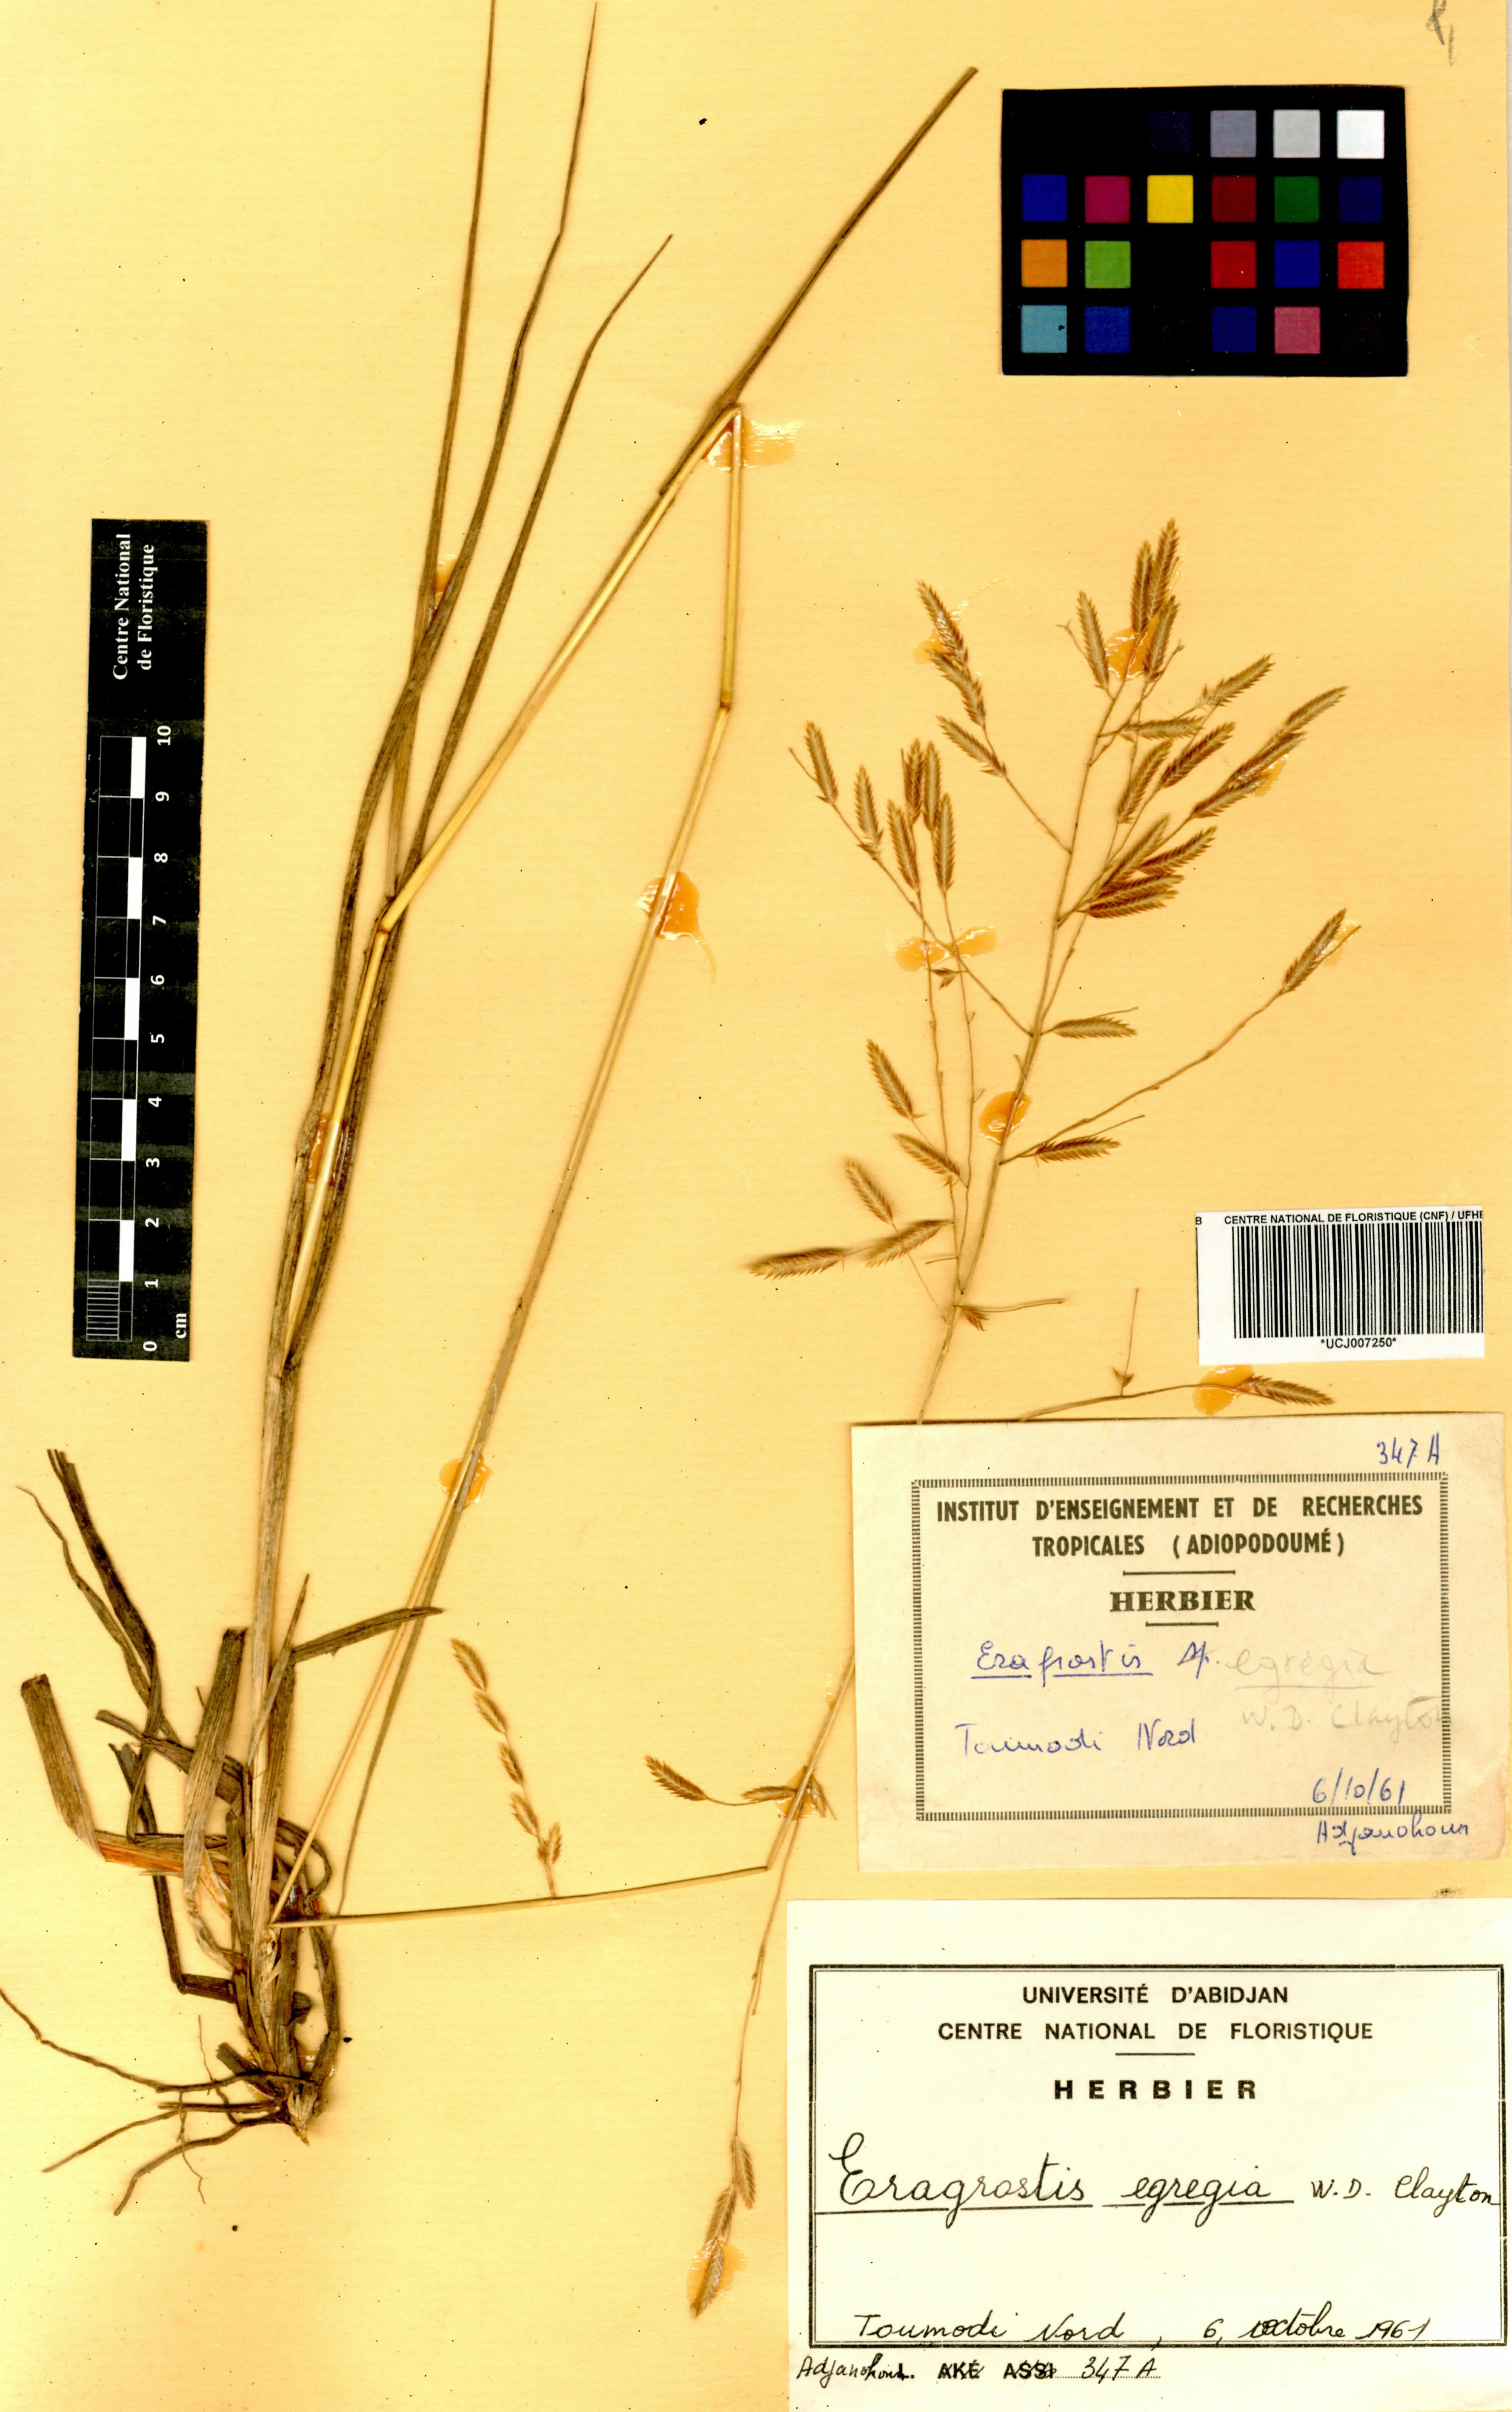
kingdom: Plantae
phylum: Tracheophyta
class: Liliopsida
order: Poales
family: Poaceae
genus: Eragrostis
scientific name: Eragrostis egregia
